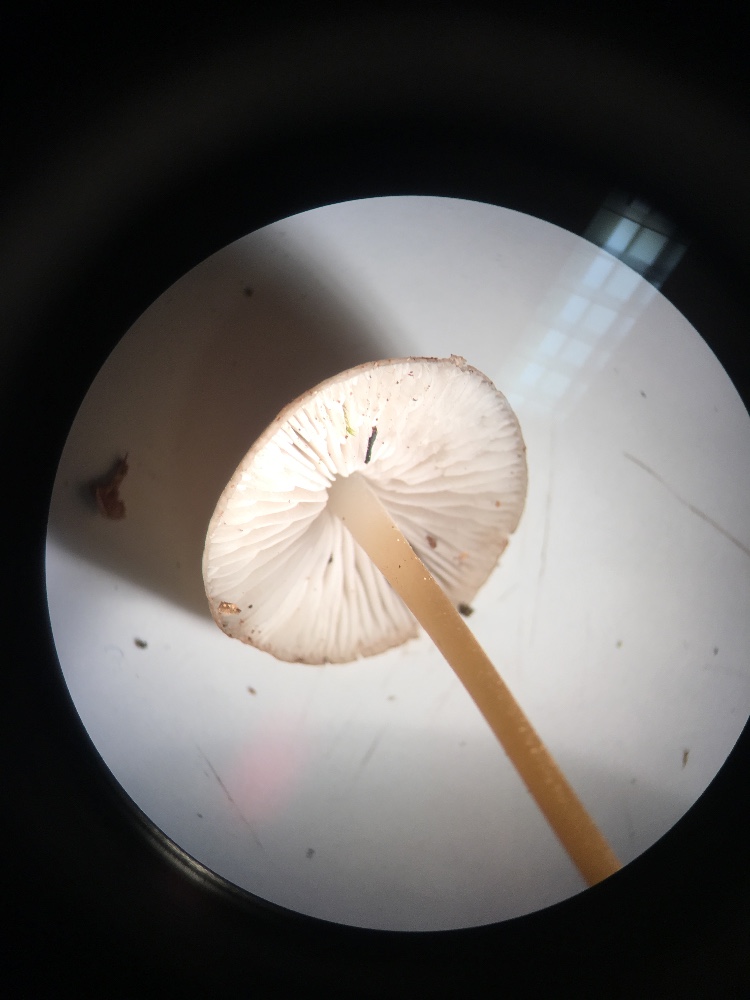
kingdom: Fungi
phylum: Basidiomycota
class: Agaricomycetes
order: Agaricales
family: Physalacriaceae
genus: Strobilurus
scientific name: Strobilurus esculentus
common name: gran-koglehat
